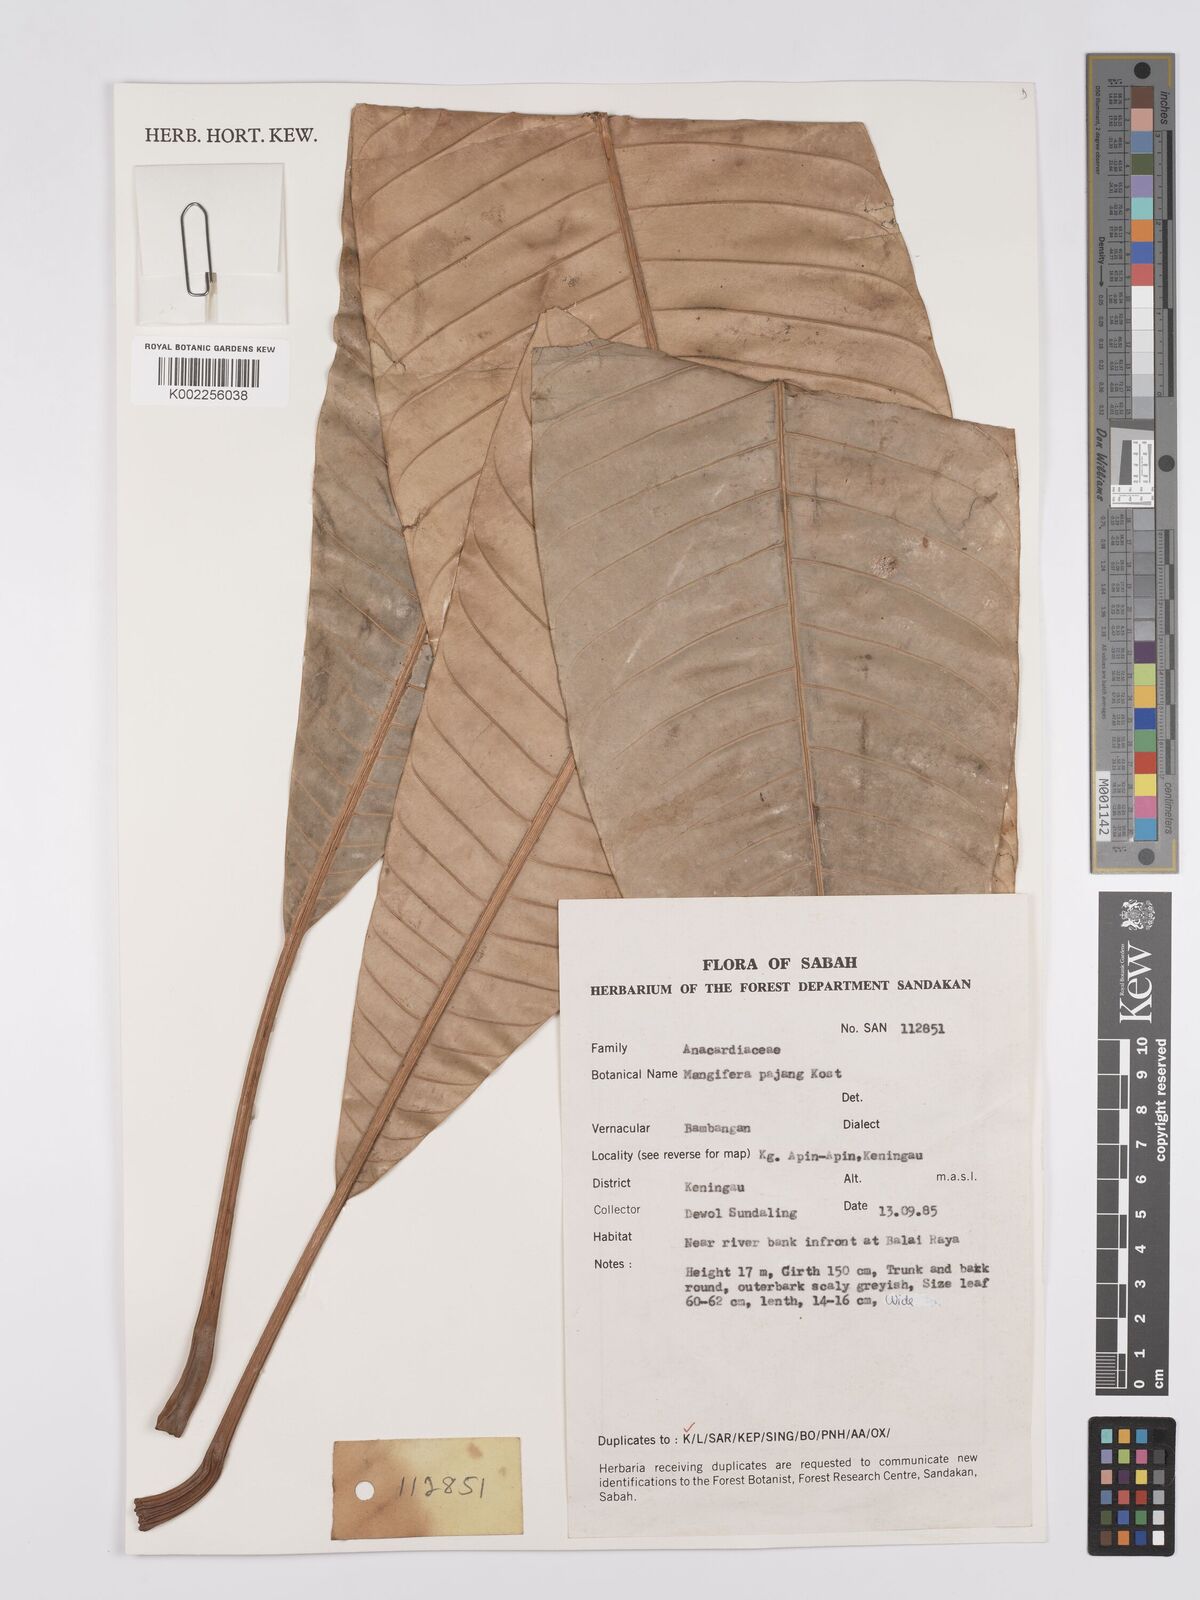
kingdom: Plantae
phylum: Tracheophyta
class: Magnoliopsida
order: Sapindales
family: Anacardiaceae
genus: Mangifera
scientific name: Mangifera pajang
